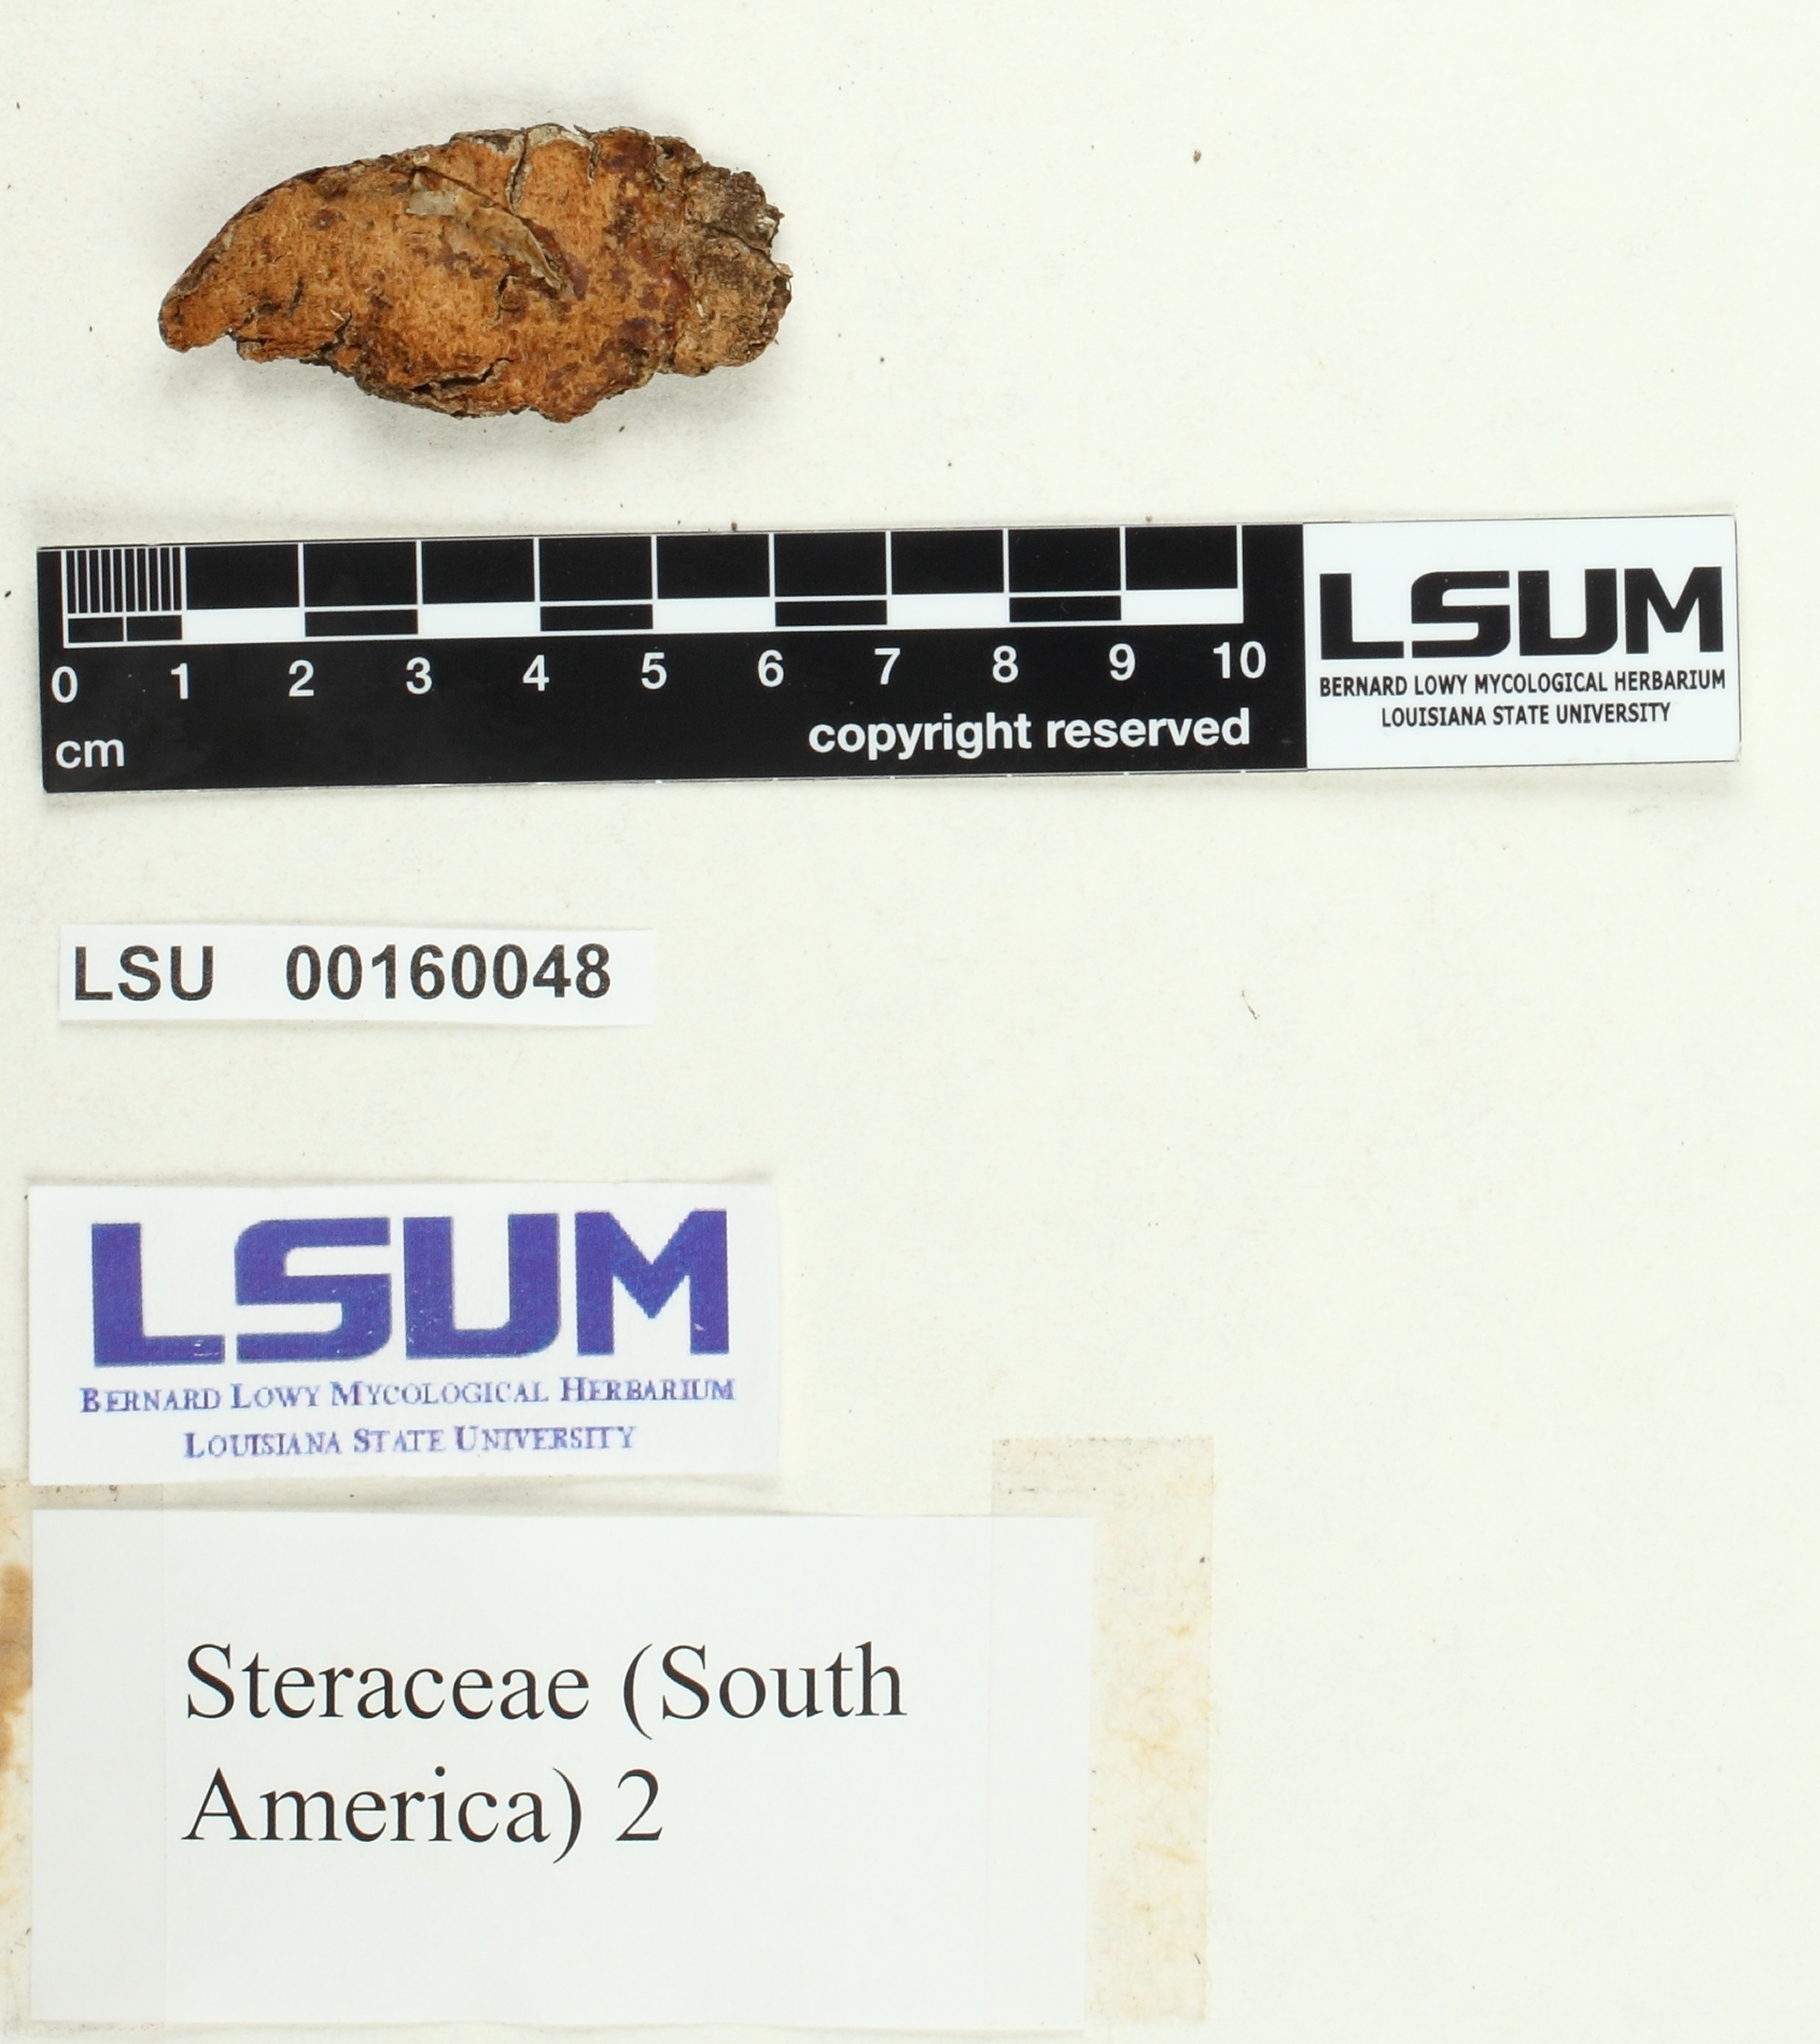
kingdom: Fungi
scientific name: Fungi
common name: Fungi
